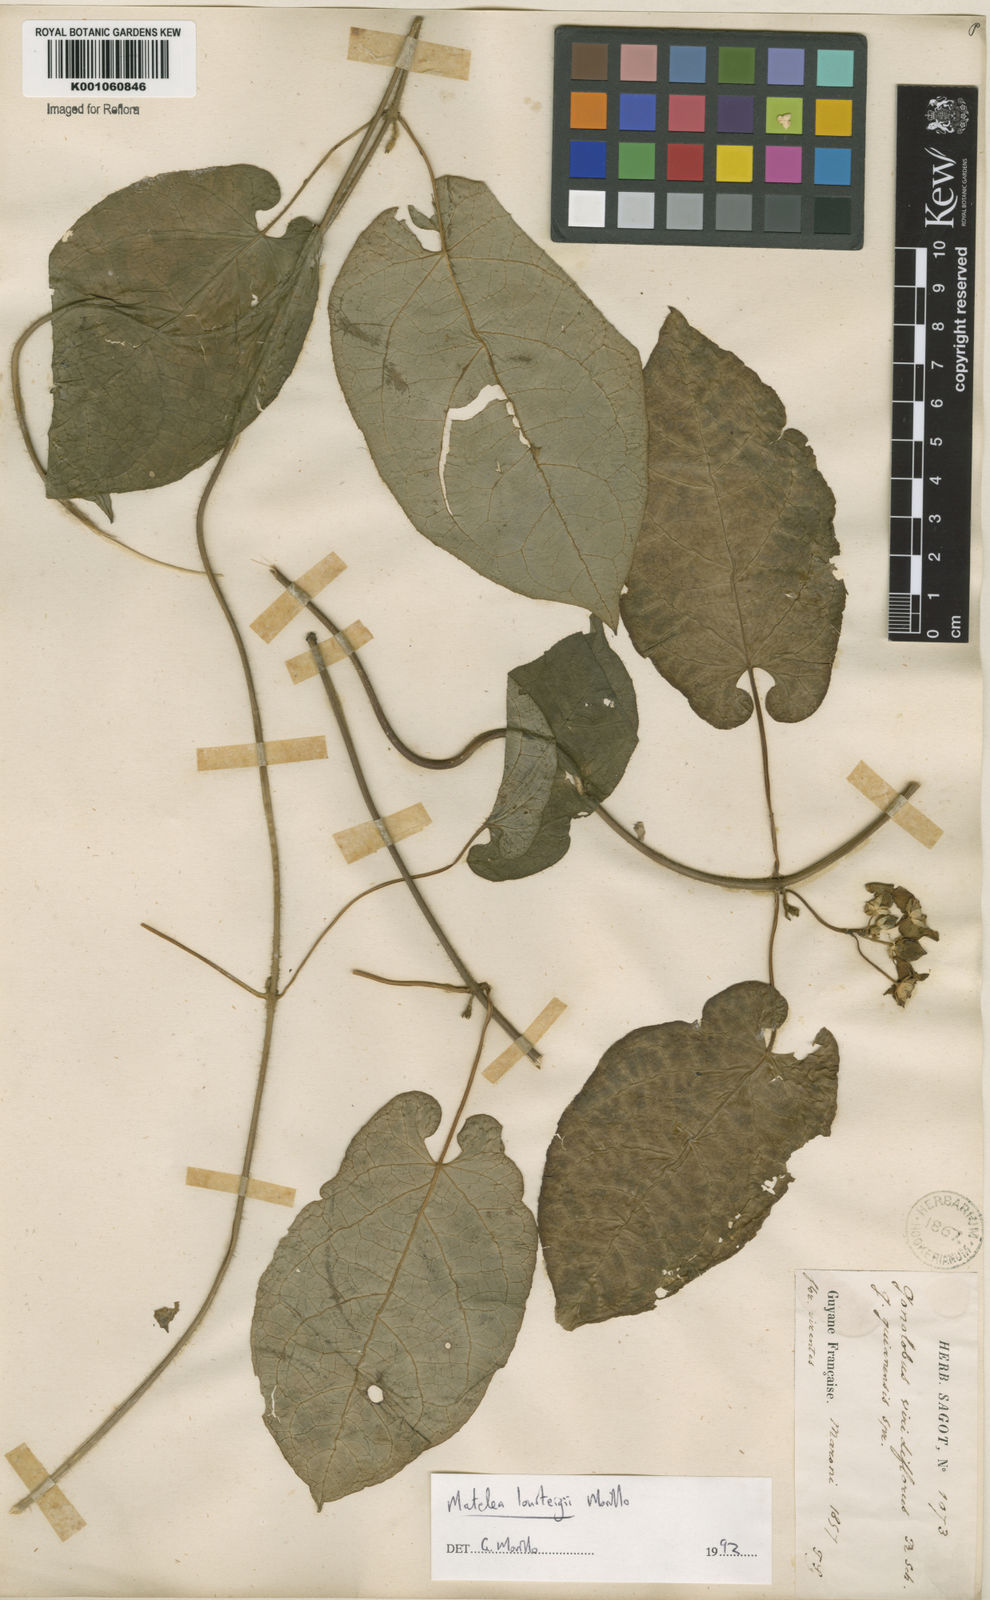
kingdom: Plantae
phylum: Tracheophyta
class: Magnoliopsida
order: Gentianales
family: Apocynaceae
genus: Chloropetalum
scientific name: Chloropetalum surinamense
